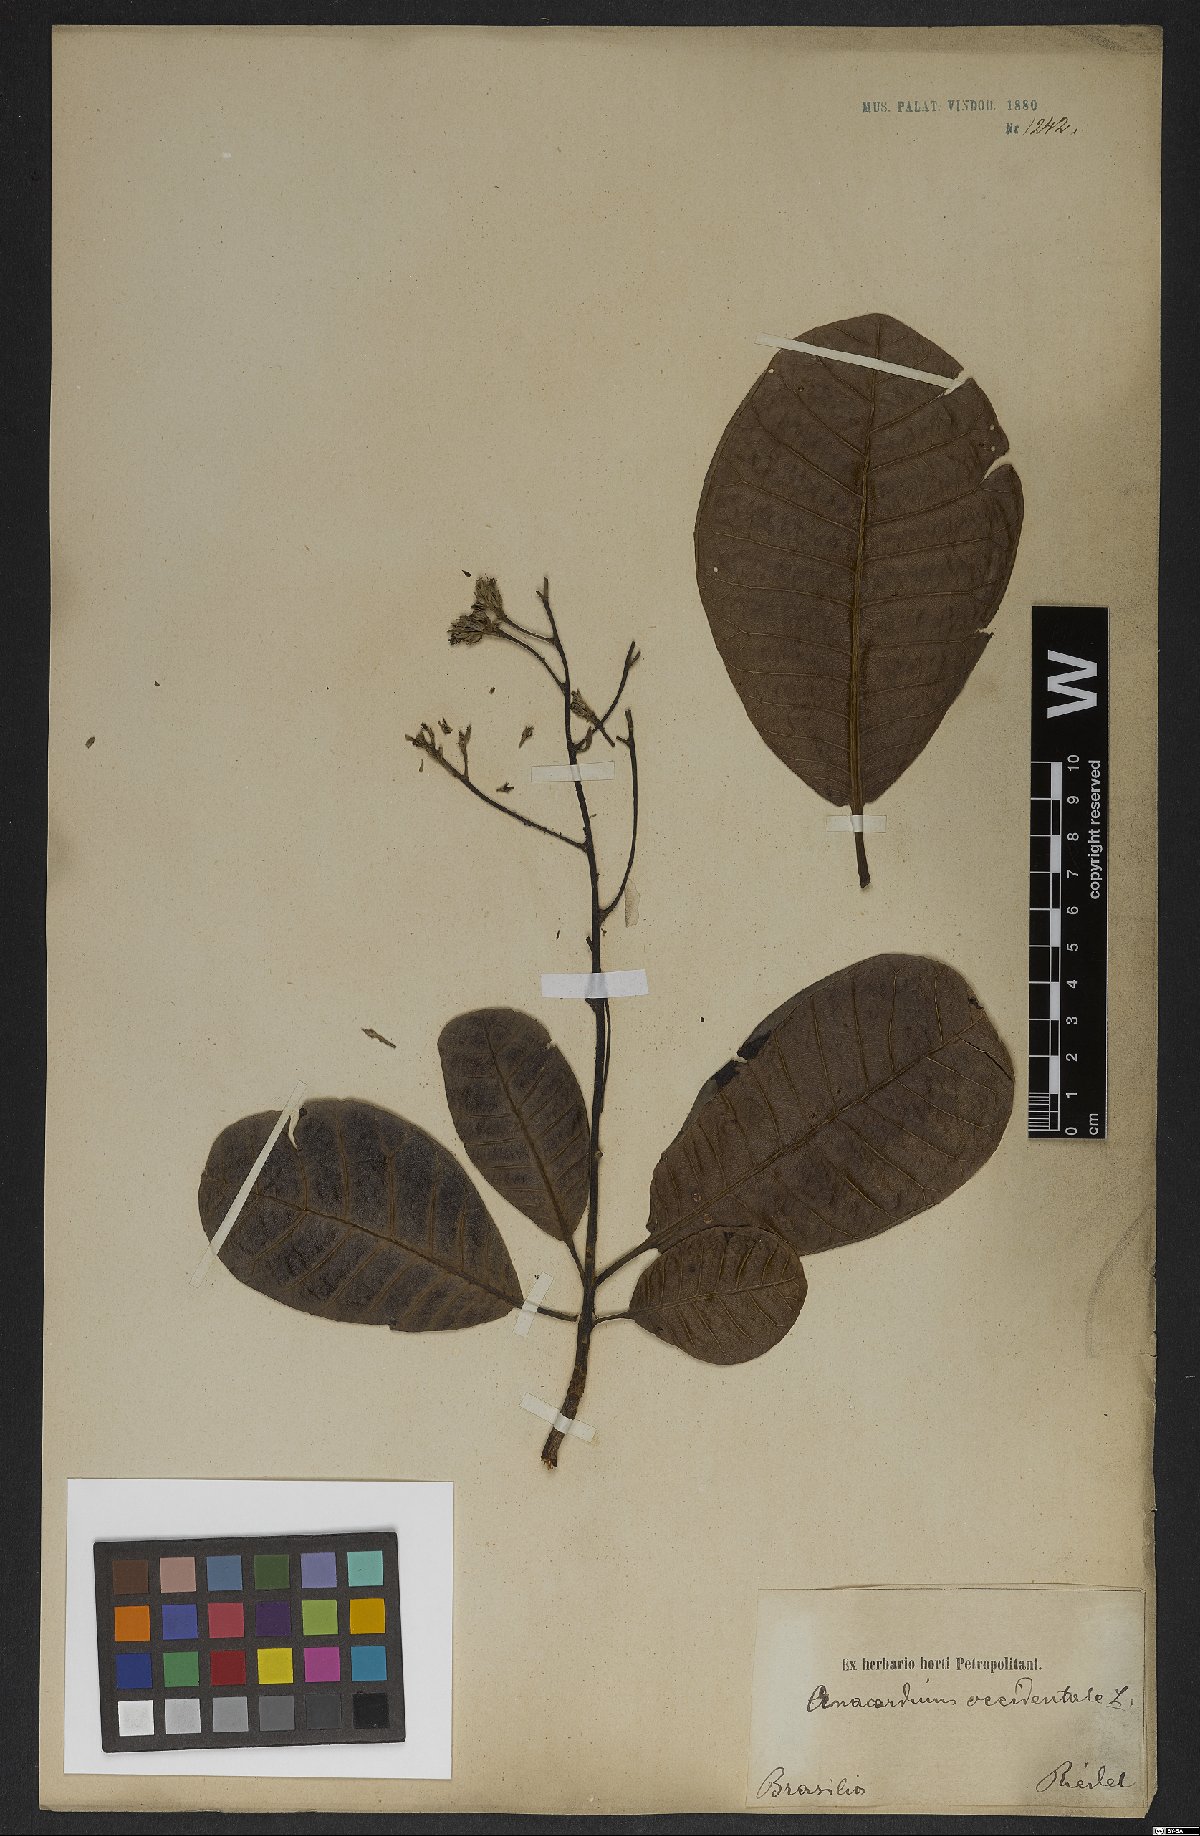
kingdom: Plantae
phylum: Tracheophyta
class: Magnoliopsida
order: Sapindales
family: Anacardiaceae
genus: Anacardium
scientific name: Anacardium occidentale
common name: Cashew
